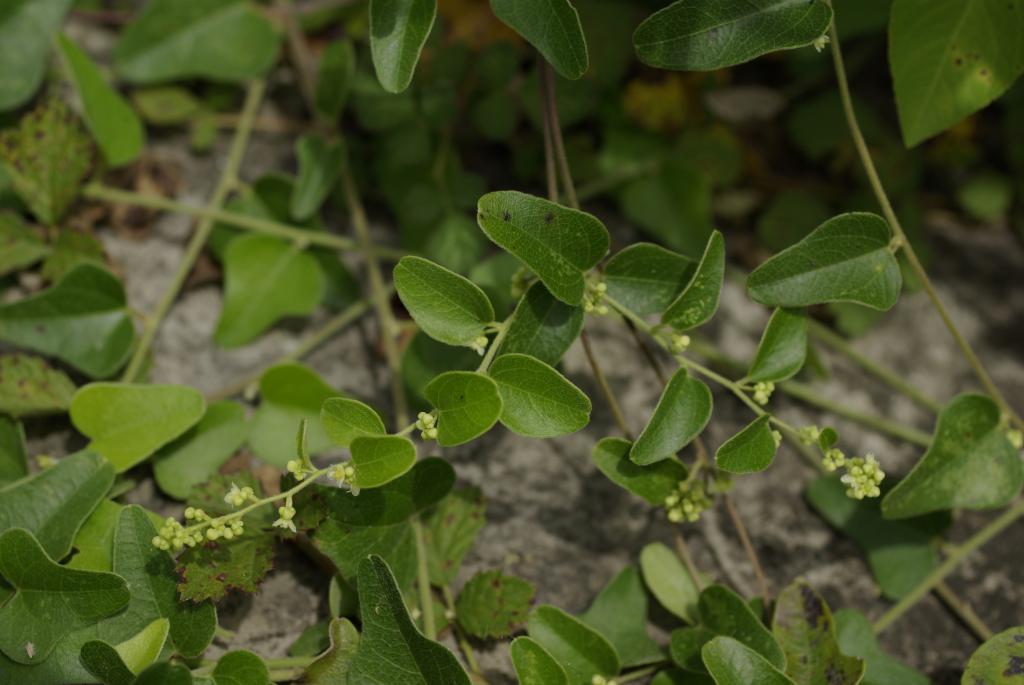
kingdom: Plantae
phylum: Tracheophyta
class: Magnoliopsida
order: Ranunculales
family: Menispermaceae
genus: Cocculus
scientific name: Cocculus orbiculatus
